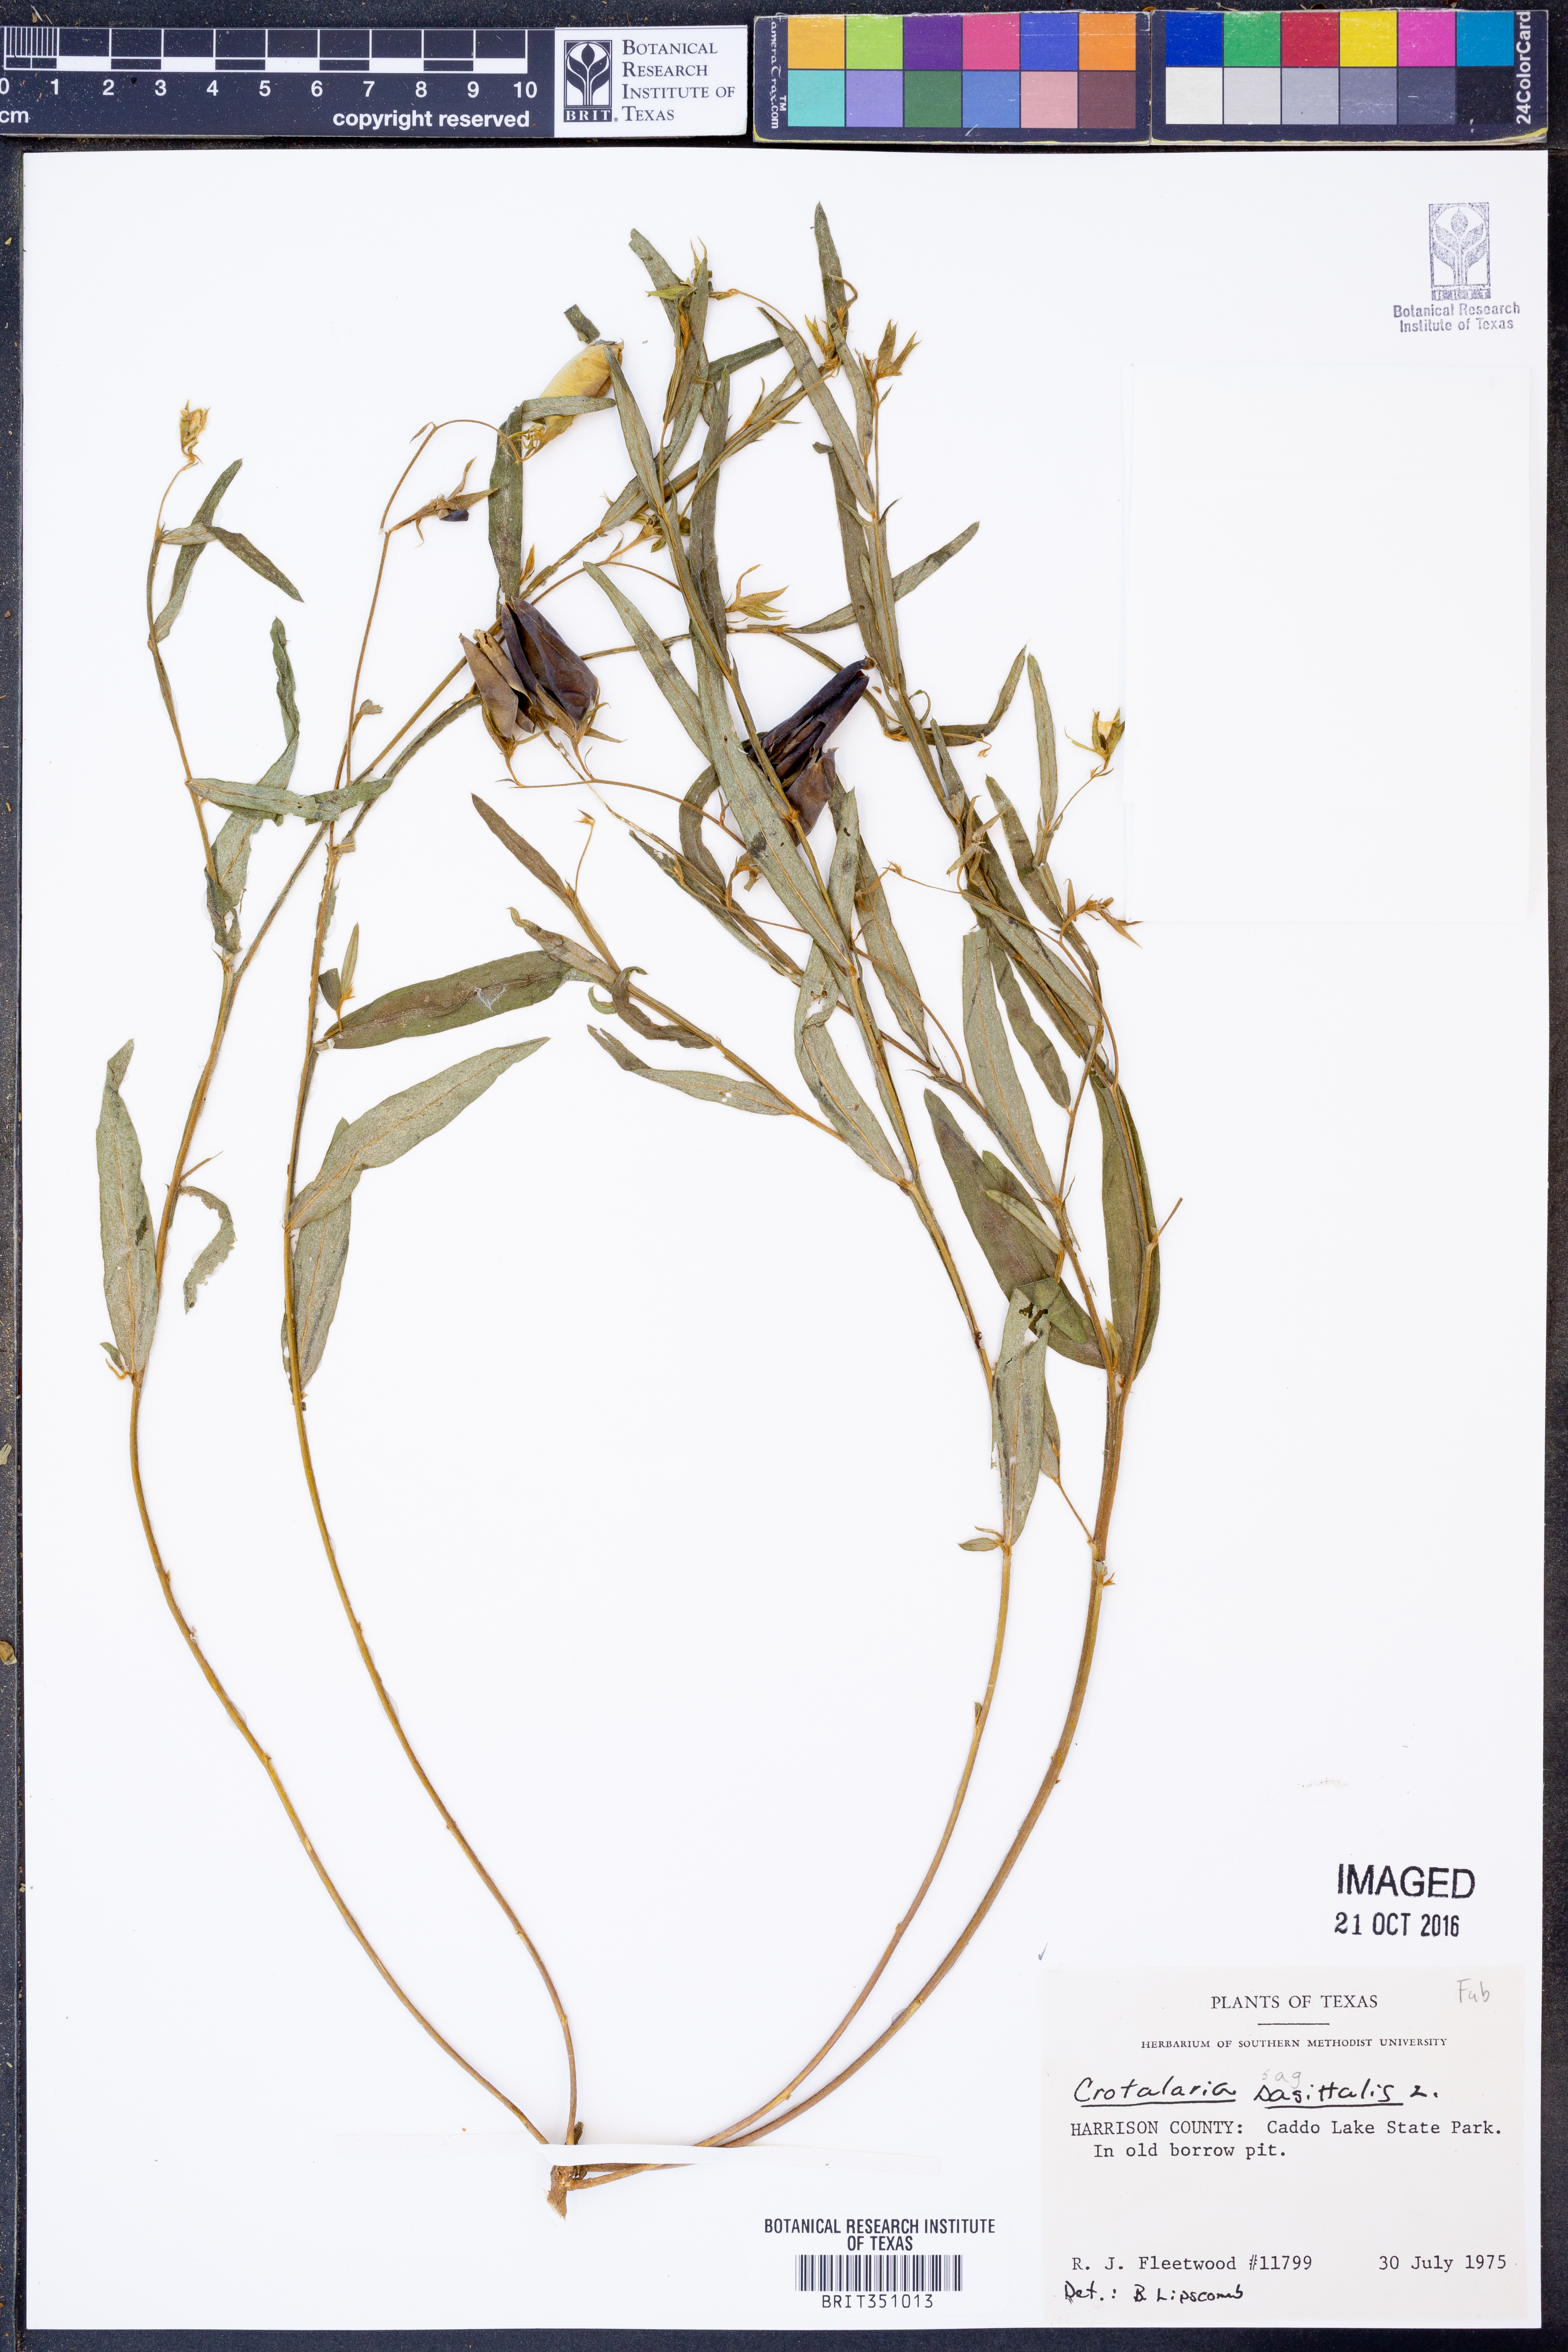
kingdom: Plantae
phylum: Tracheophyta
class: Magnoliopsida
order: Fabales
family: Fabaceae
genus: Crotalaria
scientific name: Crotalaria sagittalis
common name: Arrowhead rattlebox
